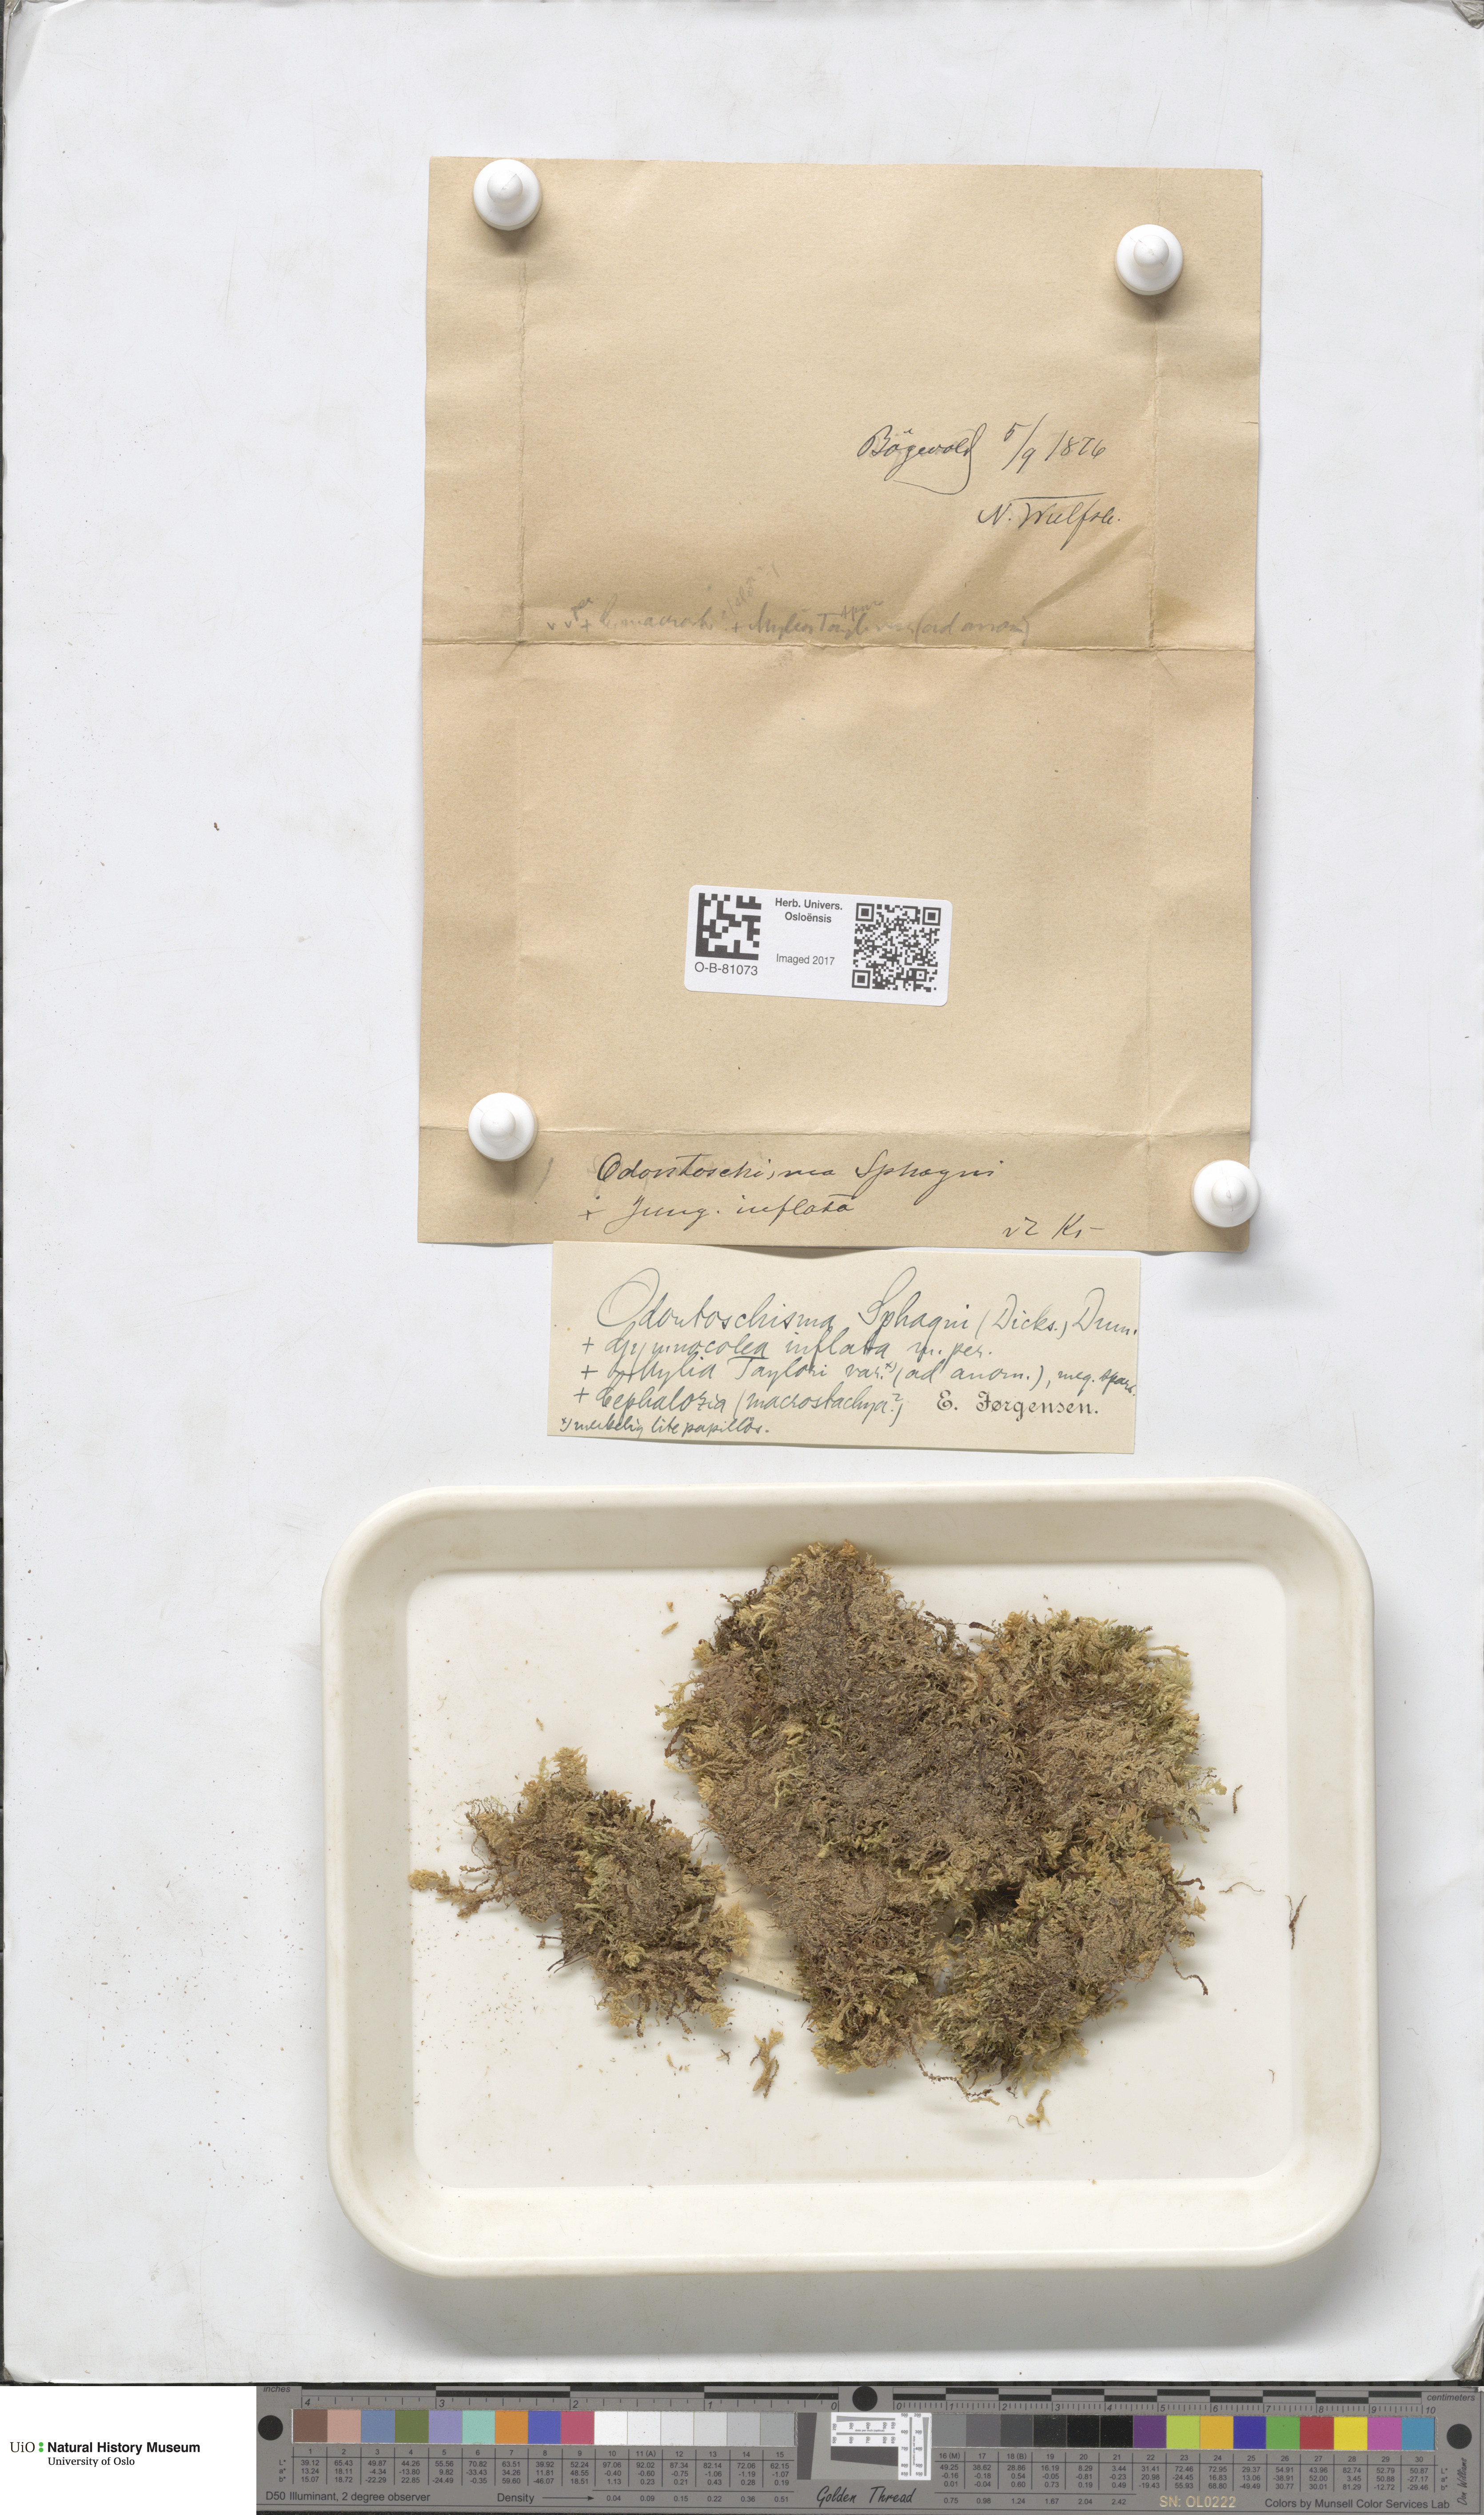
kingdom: Plantae
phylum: Marchantiophyta
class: Jungermanniopsida
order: Jungermanniales
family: Cephaloziaceae
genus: Odontoschisma
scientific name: Odontoschisma sphagni
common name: Bog-moss flapwort
